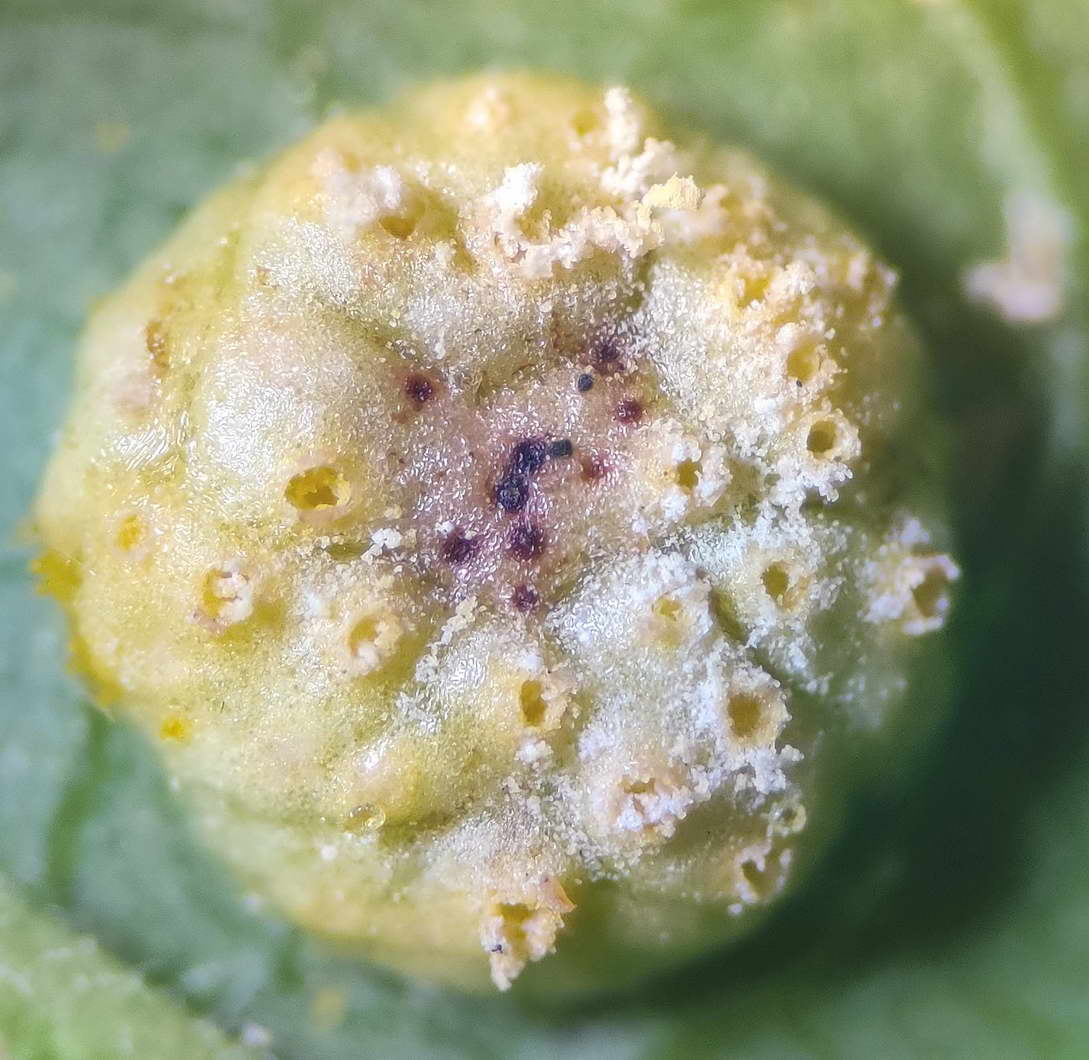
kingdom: Fungi
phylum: Basidiomycota
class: Pucciniomycetes
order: Pucciniales
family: Melampsoraceae
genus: Melampsora
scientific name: Melampsora epitea
